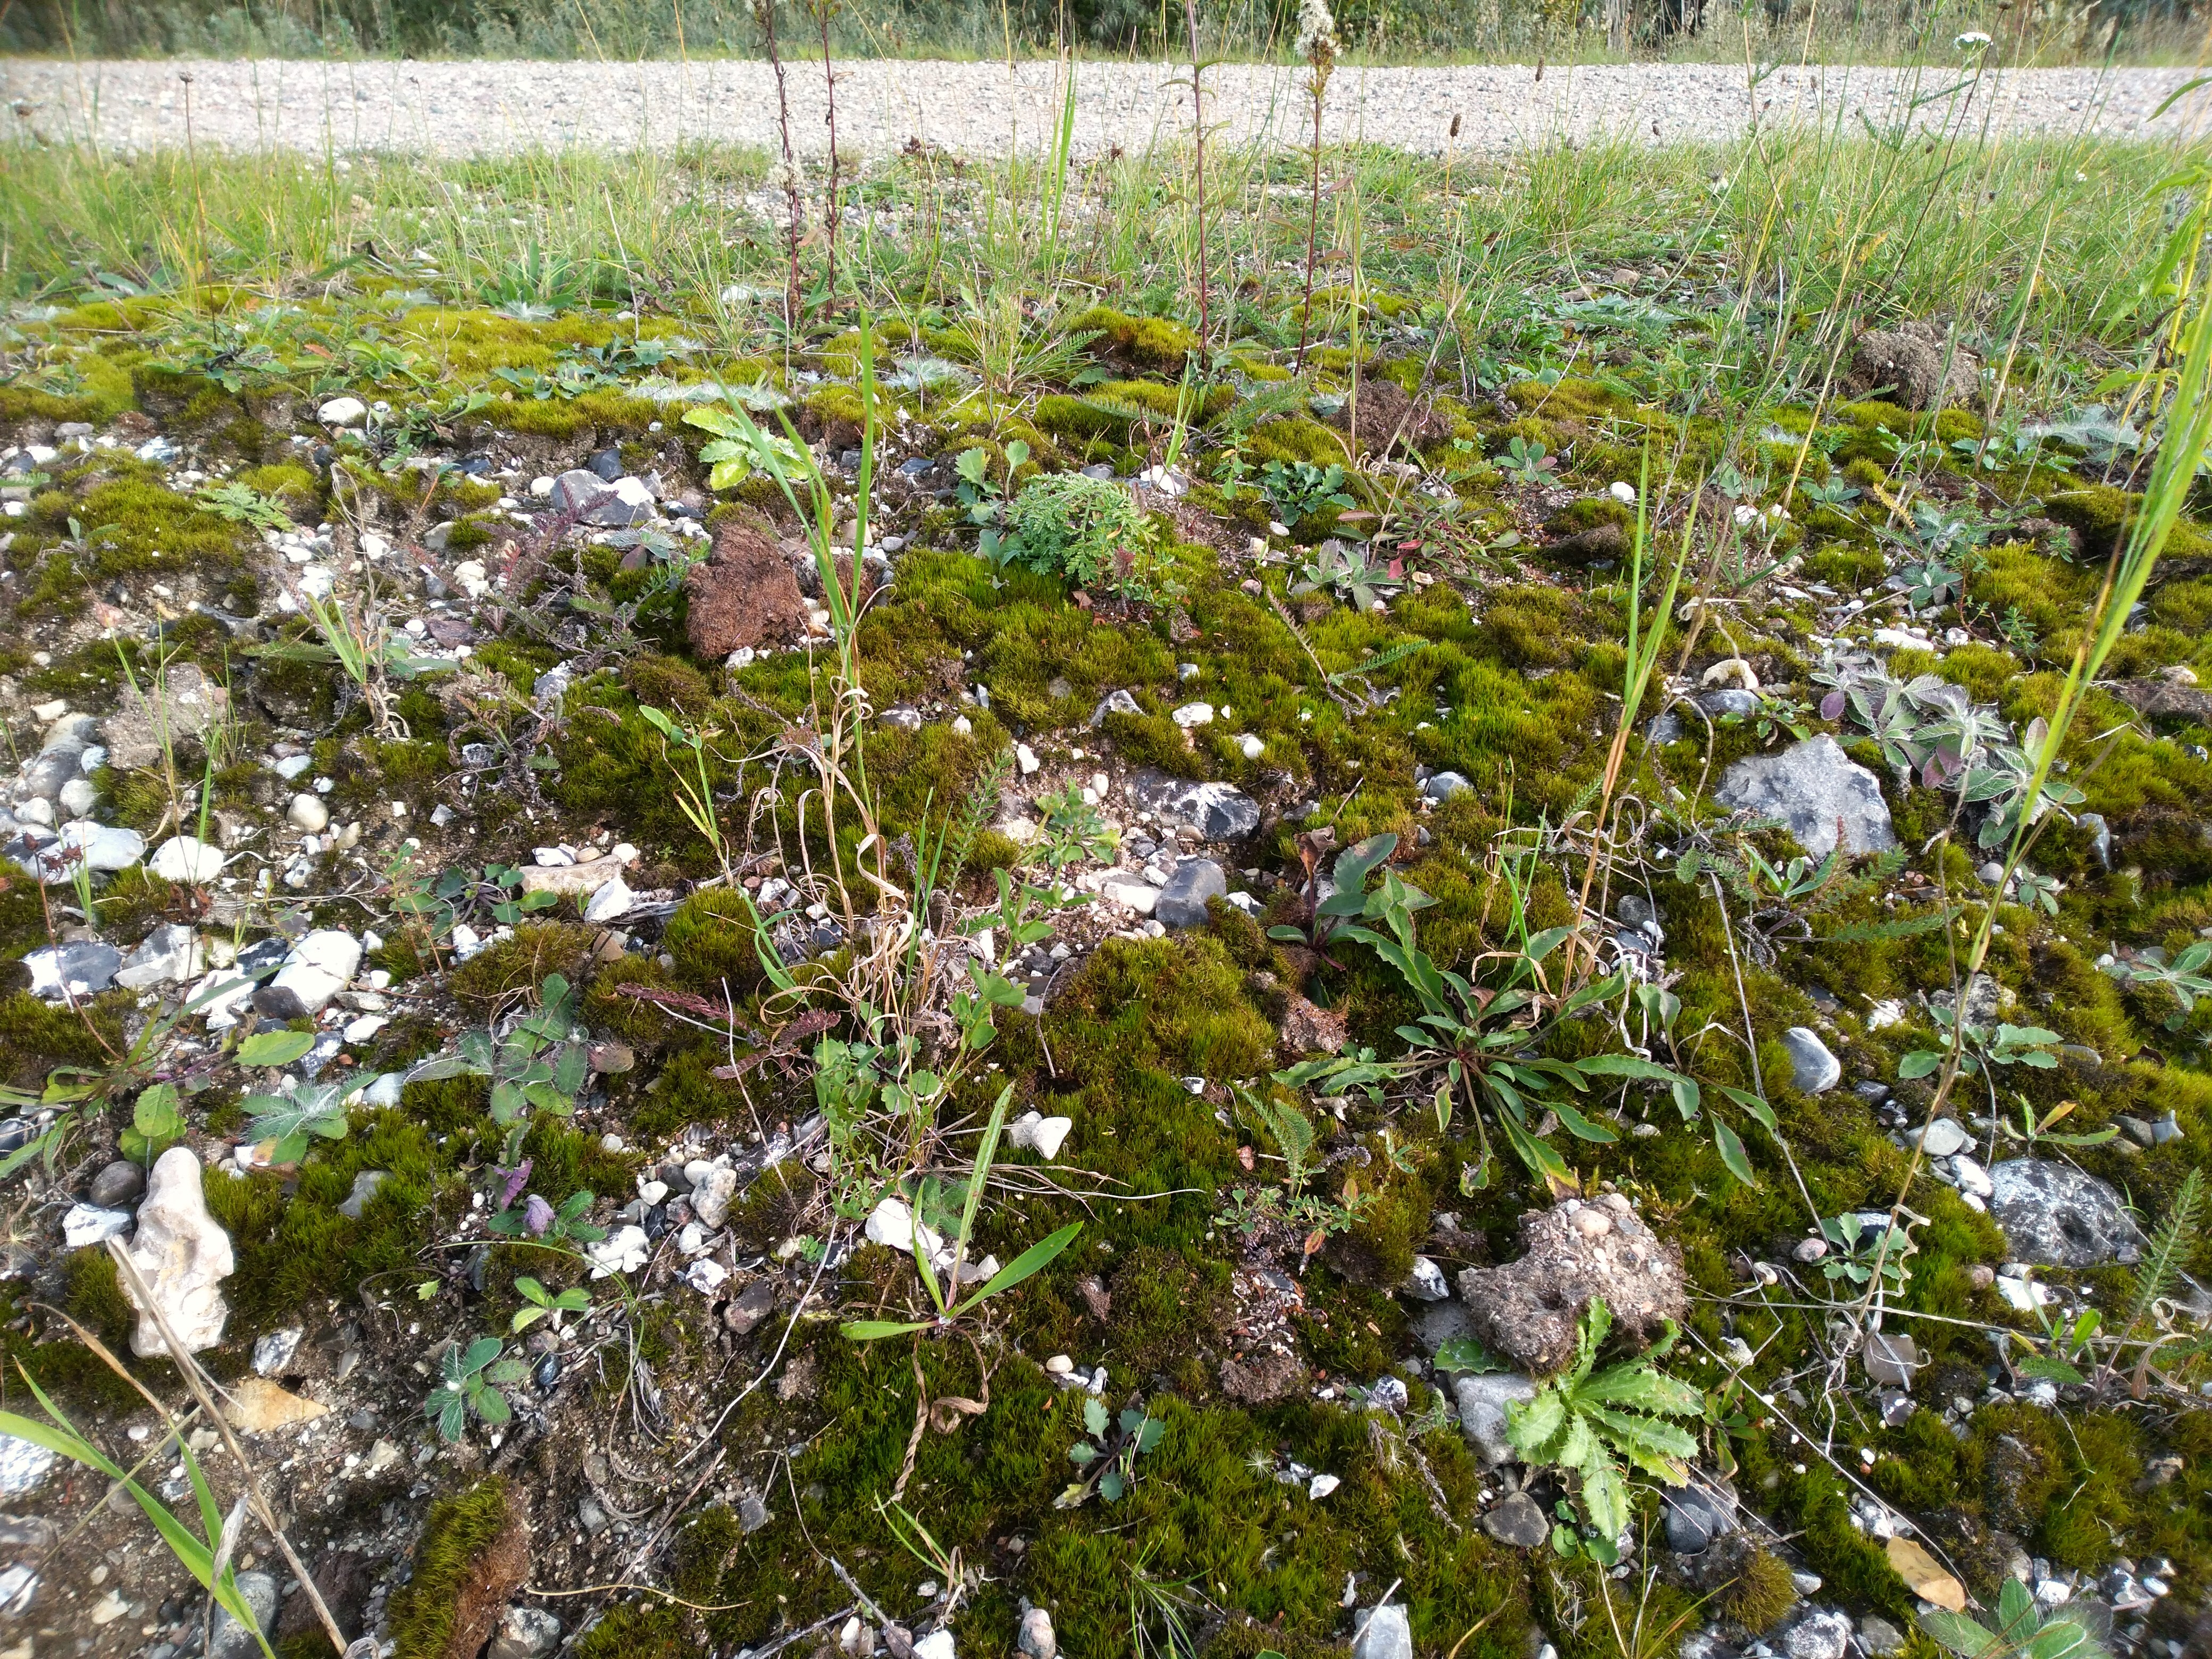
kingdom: Plantae
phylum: Bryophyta
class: Bryopsida
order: Scouleriales
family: Flexitrichaceae
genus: Flexitrichum
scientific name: Flexitrichum flexicaule
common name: Kalk-hårtand
